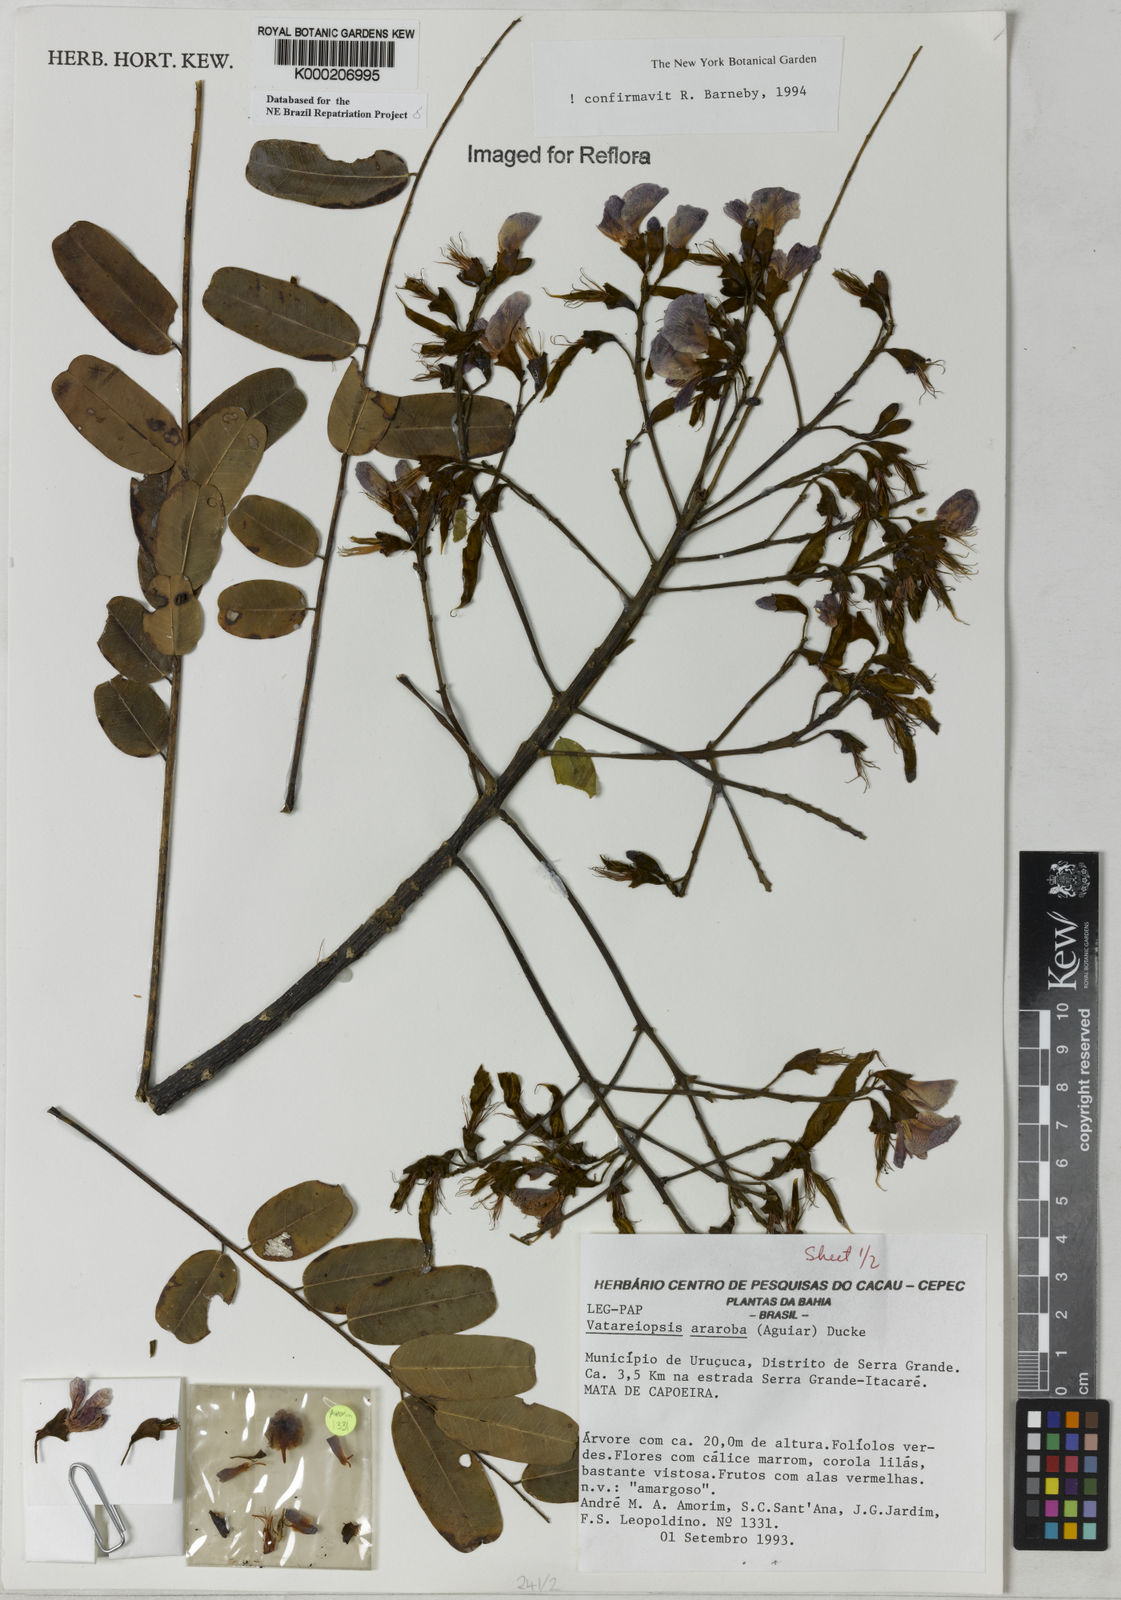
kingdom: Plantae
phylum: Tracheophyta
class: Magnoliopsida
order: Fabales
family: Fabaceae
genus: Vataireopsis
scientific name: Vataireopsis araroba
